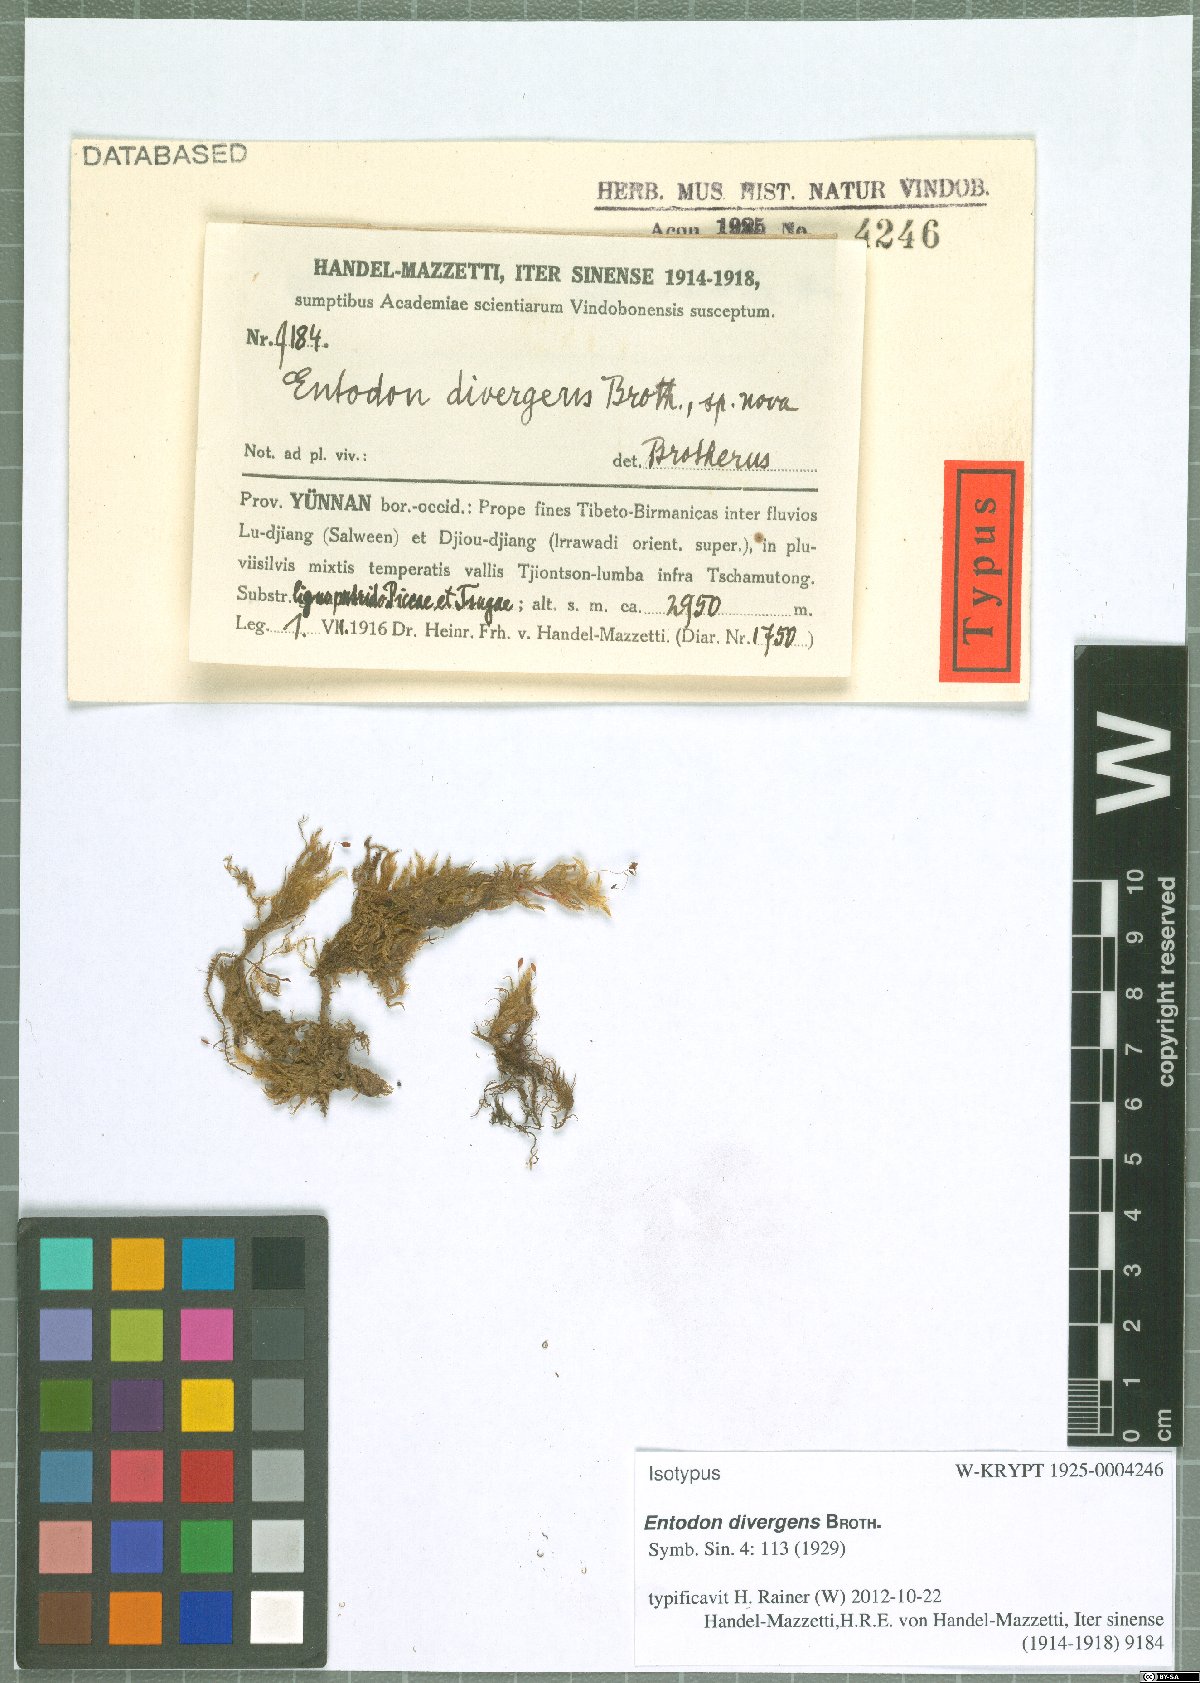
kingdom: Plantae
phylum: Bryophyta
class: Bryopsida
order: Hypnales
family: Entodontaceae
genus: Entodon
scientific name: Entodon divergens
